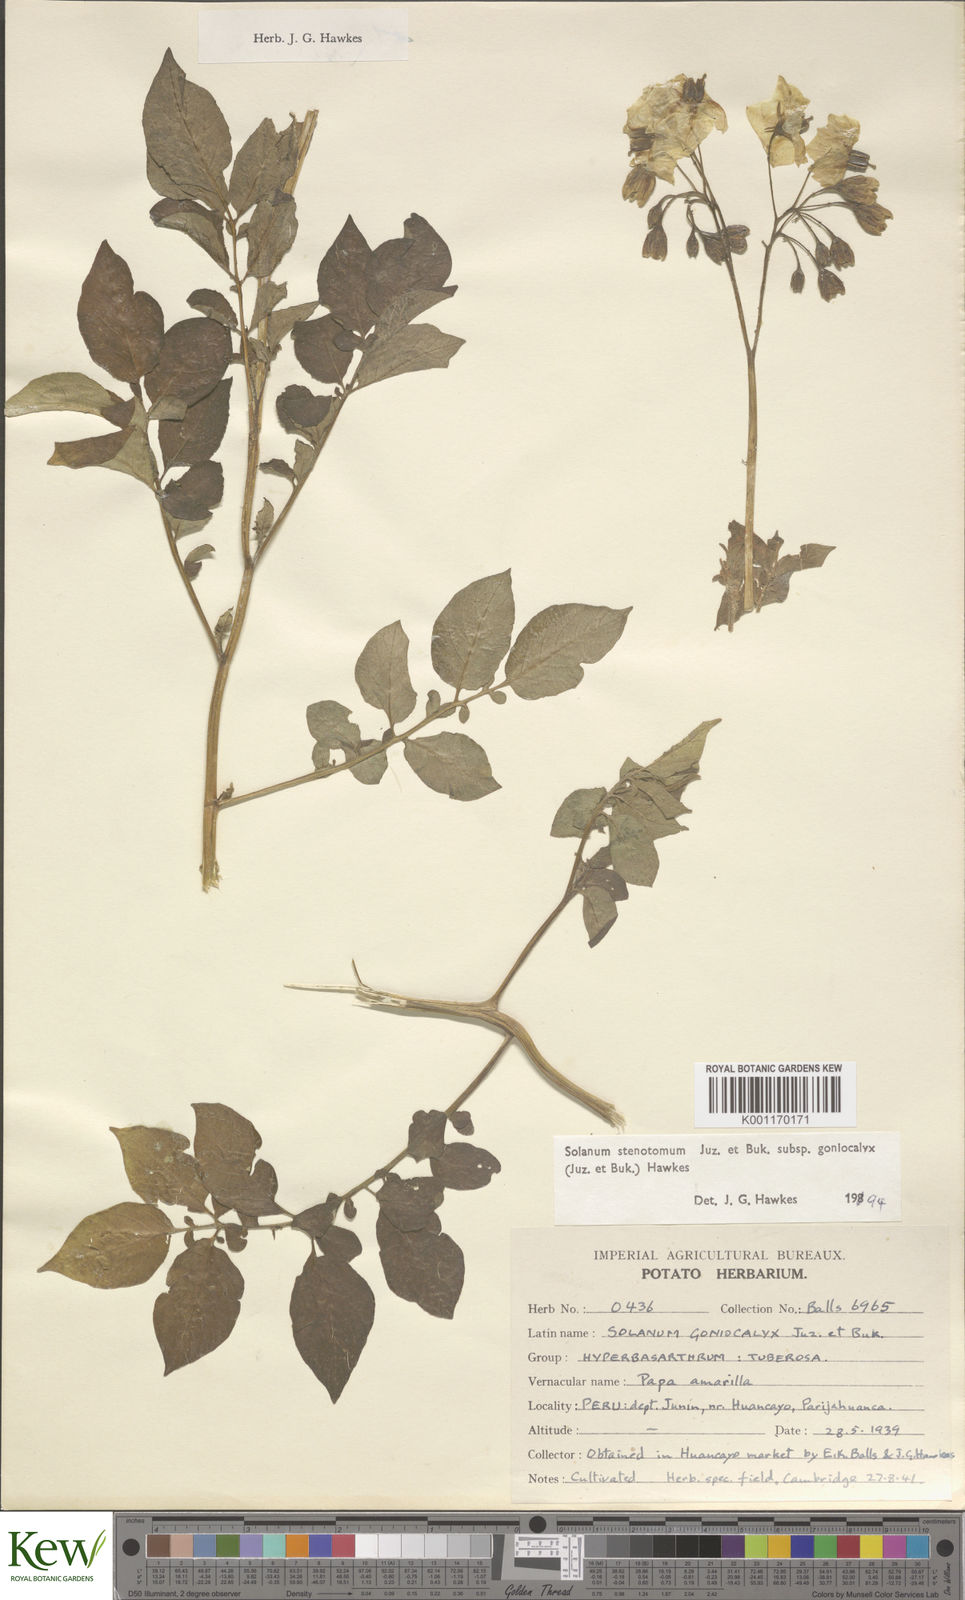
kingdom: Plantae
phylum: Tracheophyta
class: Magnoliopsida
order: Solanales
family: Solanaceae
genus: Solanum
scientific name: Solanum tuberosum
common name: Potato
